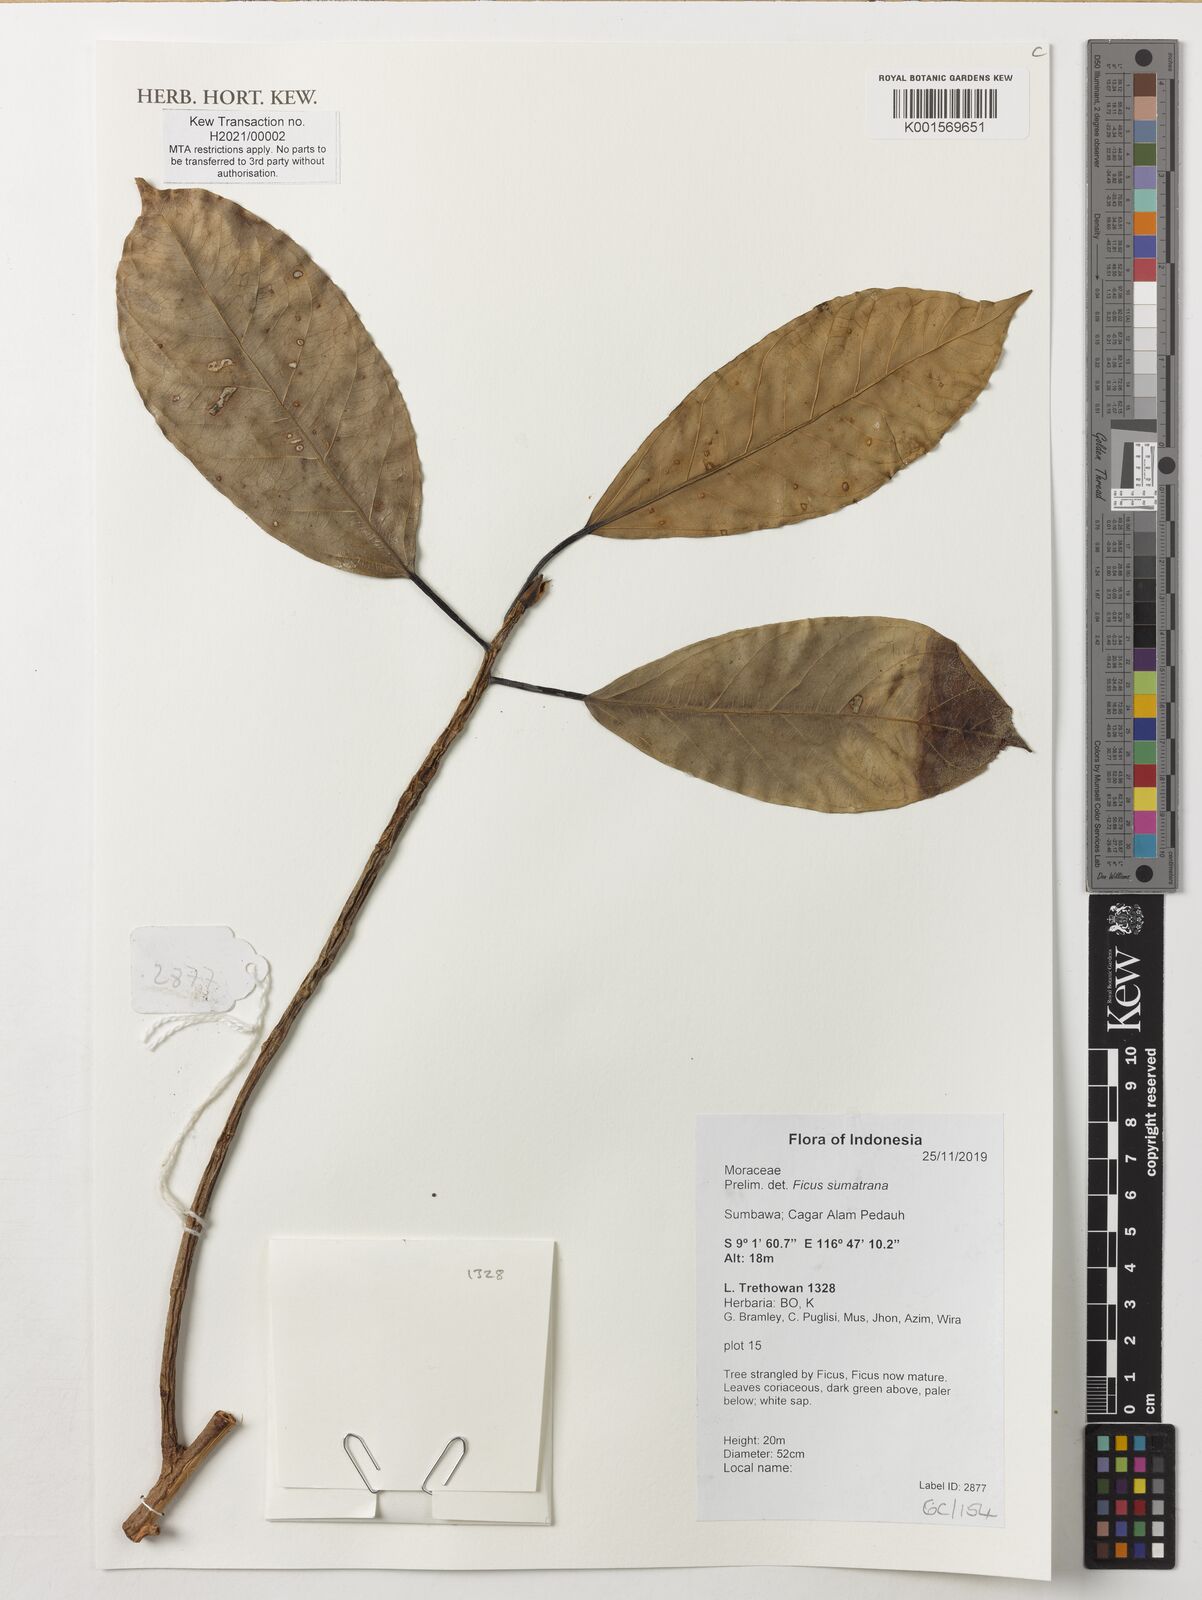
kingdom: Plantae
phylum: Tracheophyta
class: Magnoliopsida
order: Rosales
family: Moraceae
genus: Ficus
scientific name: Ficus sumatrana
